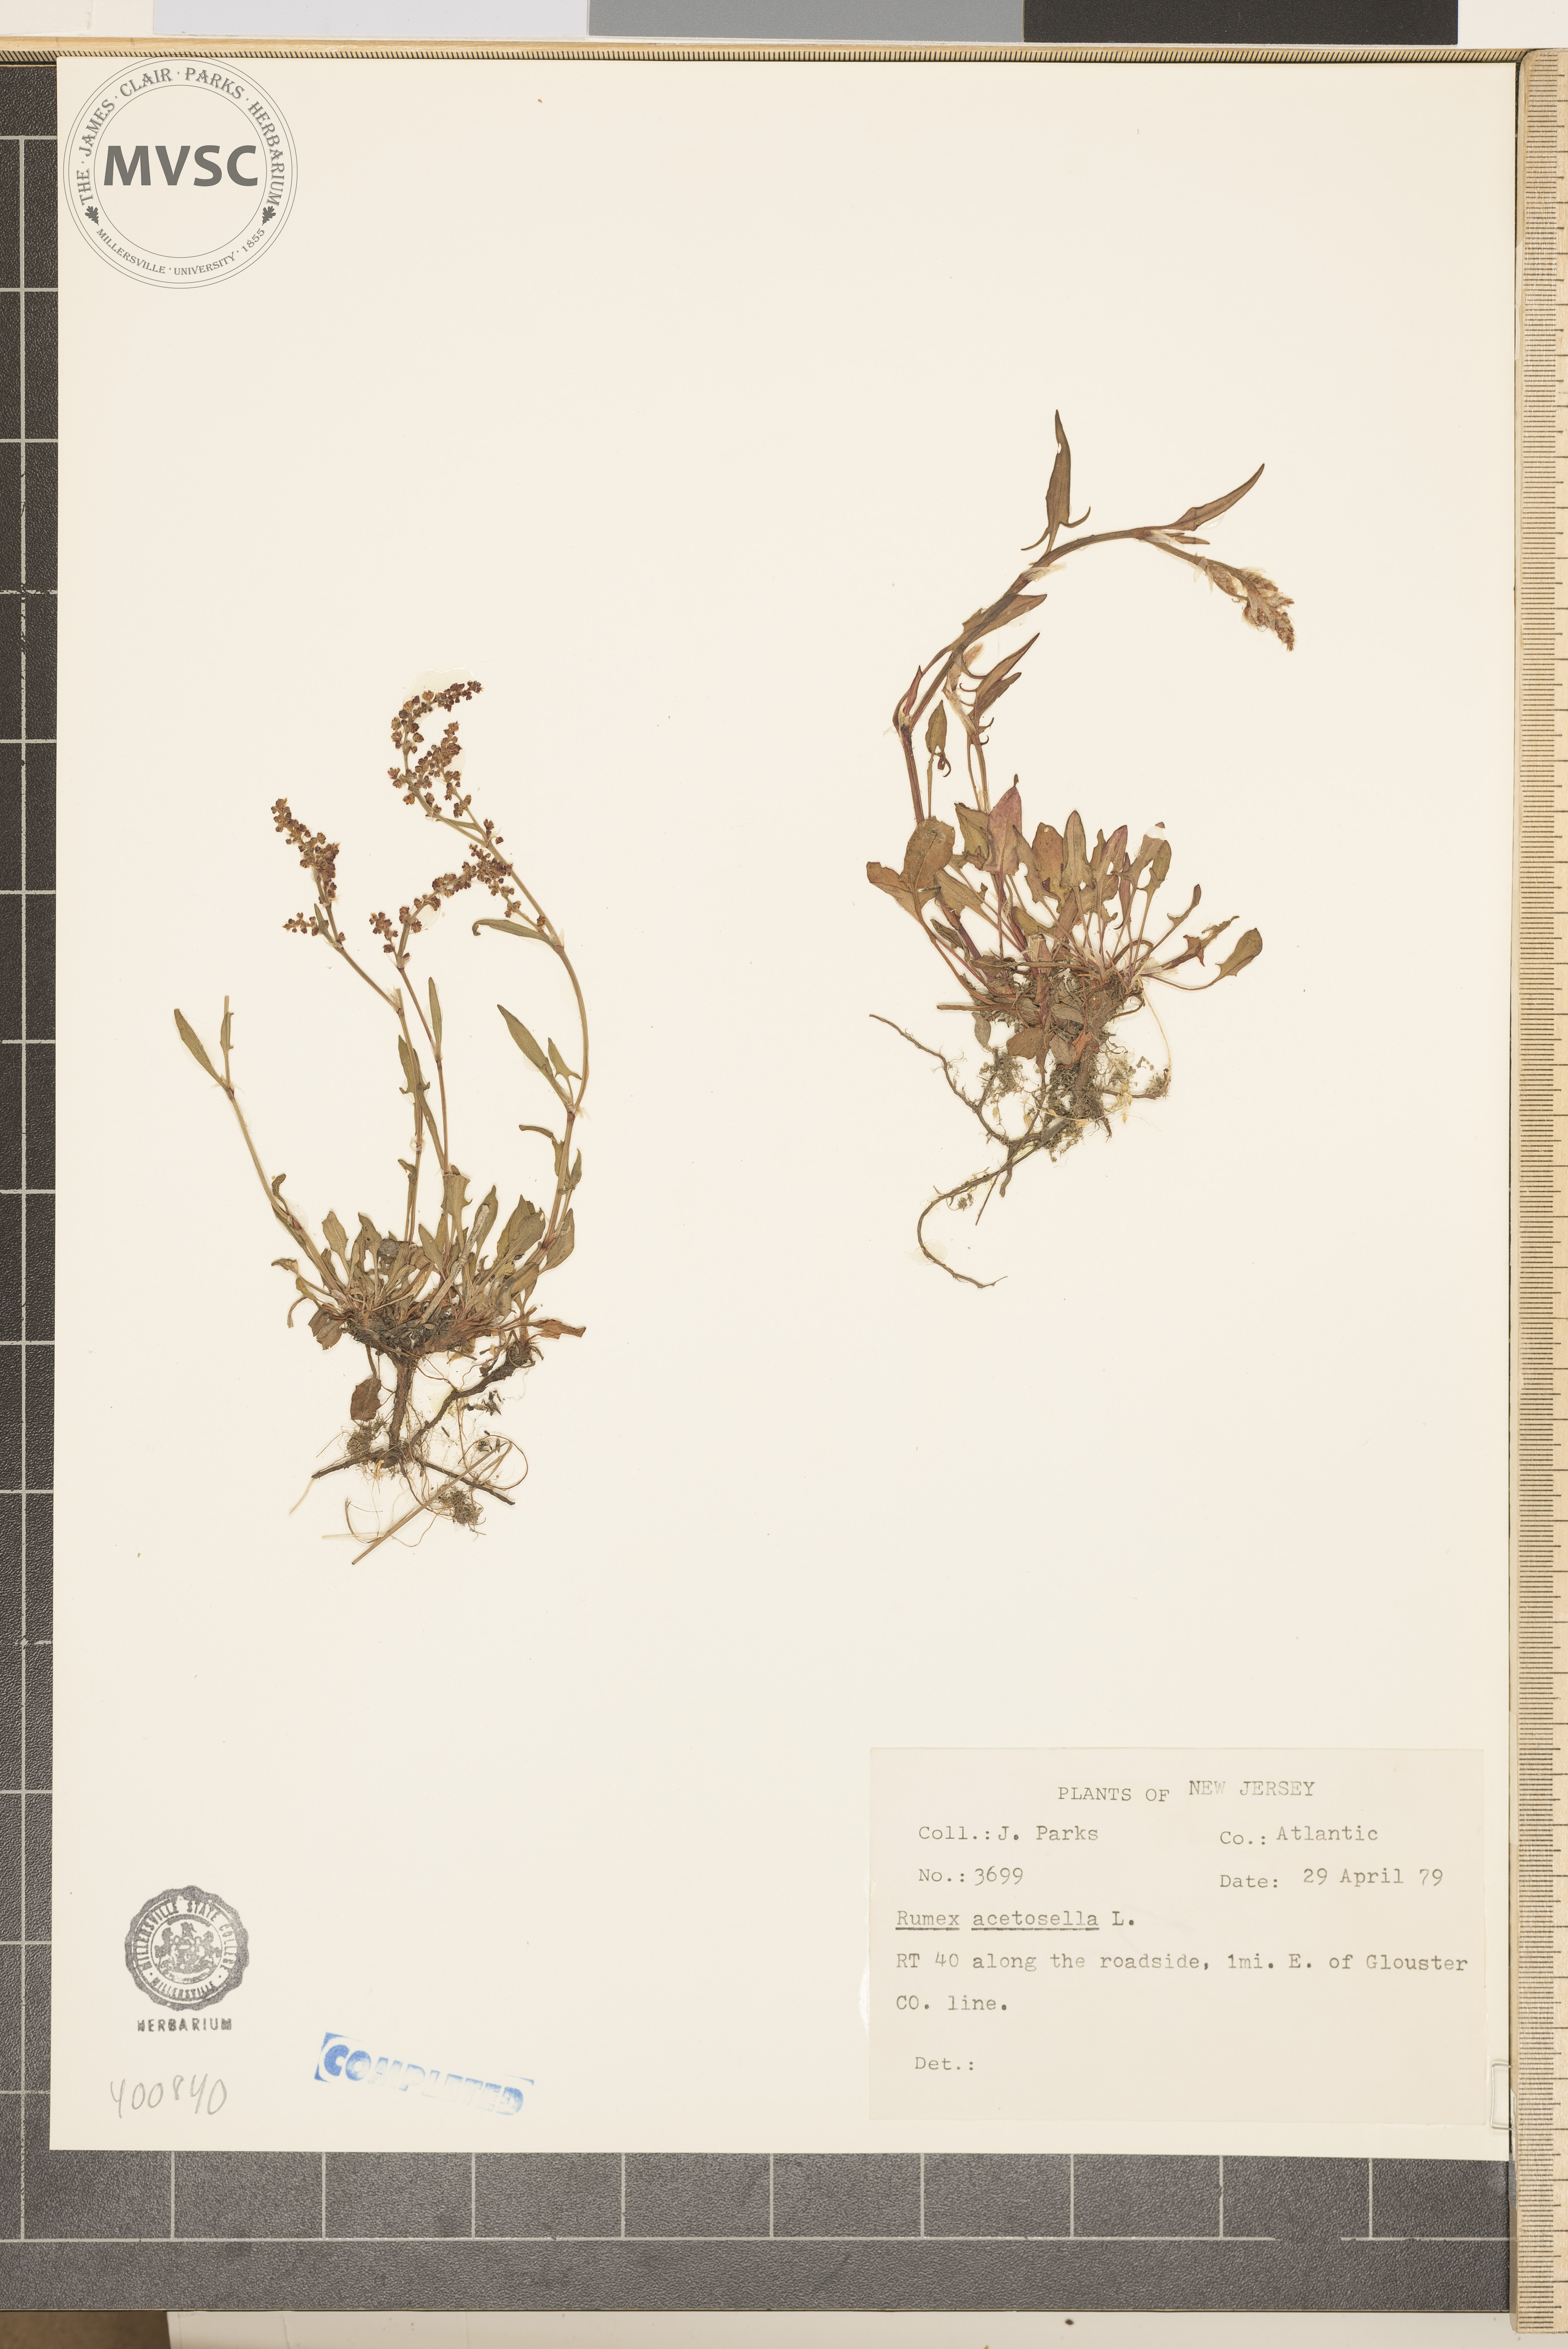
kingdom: Plantae
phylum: Tracheophyta
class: Magnoliopsida
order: Caryophyllales
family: Polygonaceae
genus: Rumex
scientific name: Rumex acetosella
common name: dock
